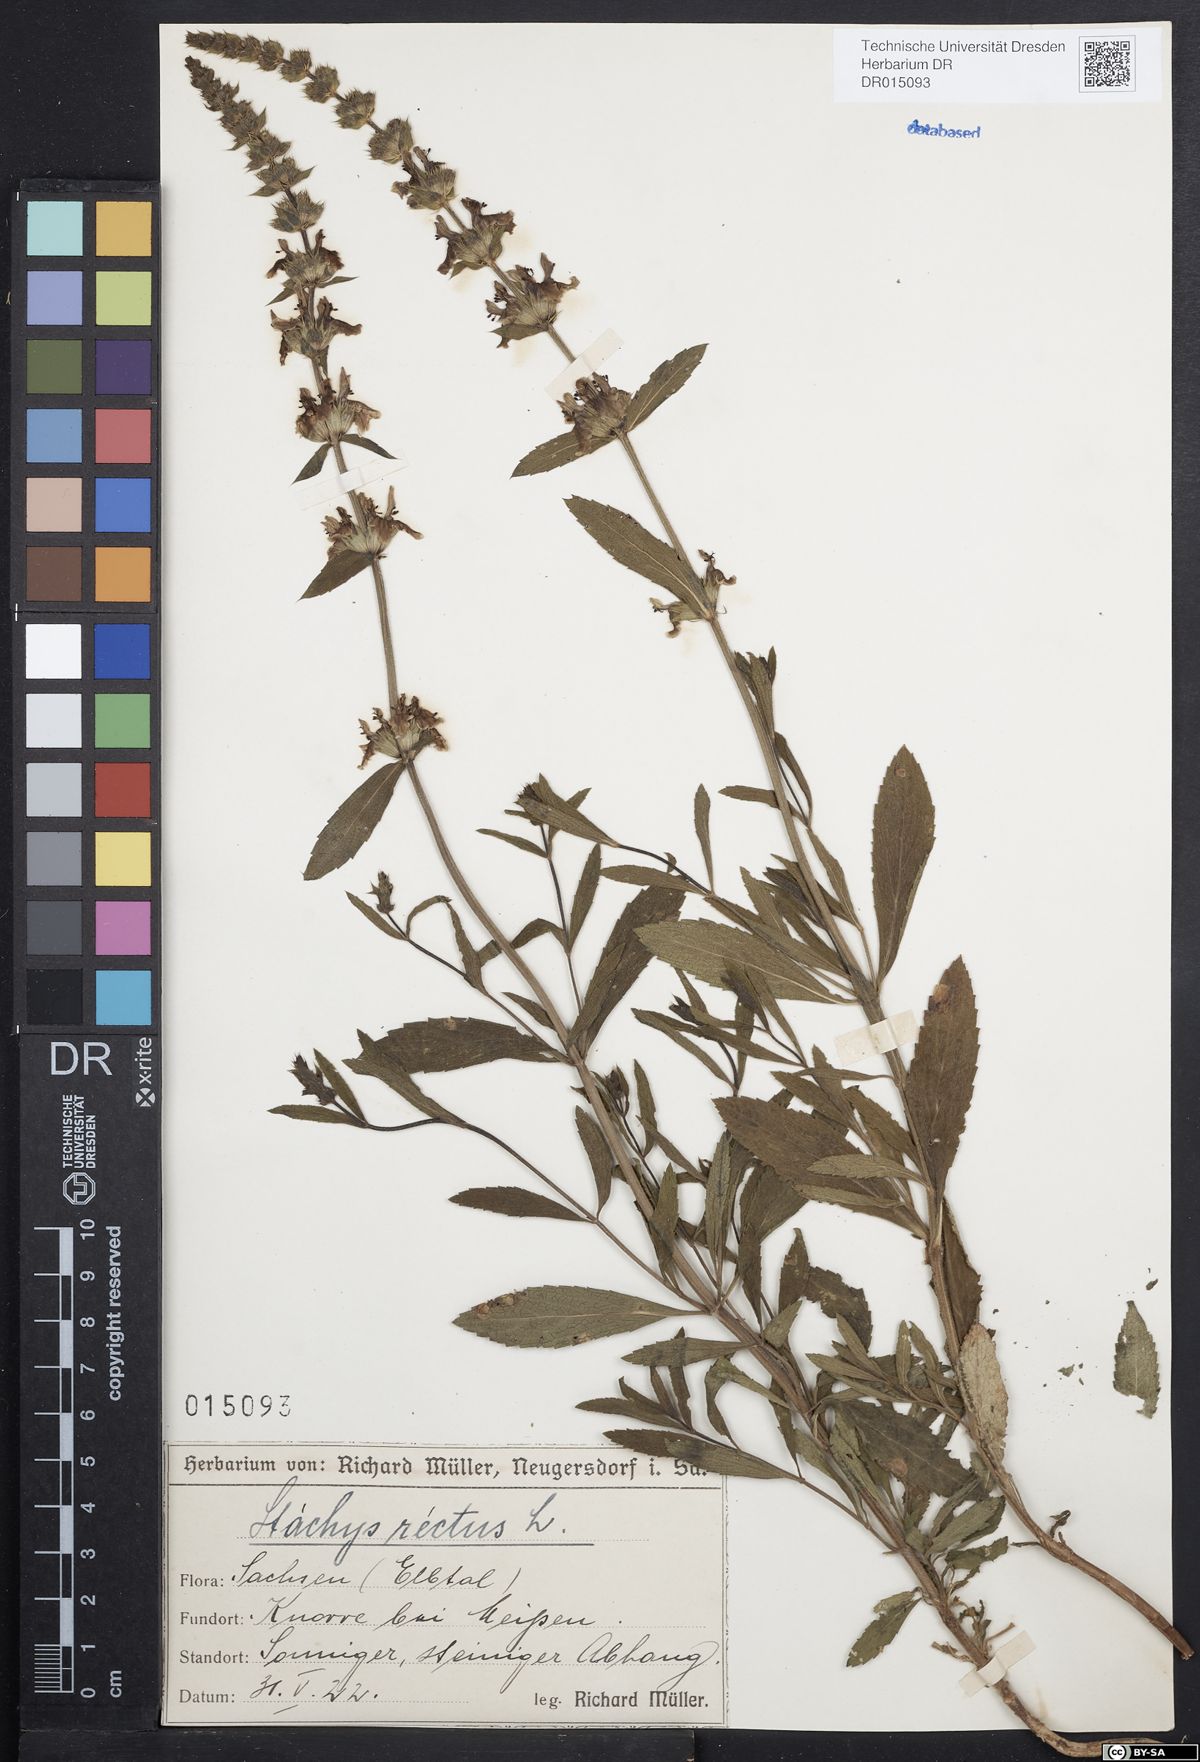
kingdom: Plantae
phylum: Tracheophyta
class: Magnoliopsida
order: Lamiales
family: Lamiaceae
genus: Stachys
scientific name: Stachys recta
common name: Perennial yellow-woundwort
